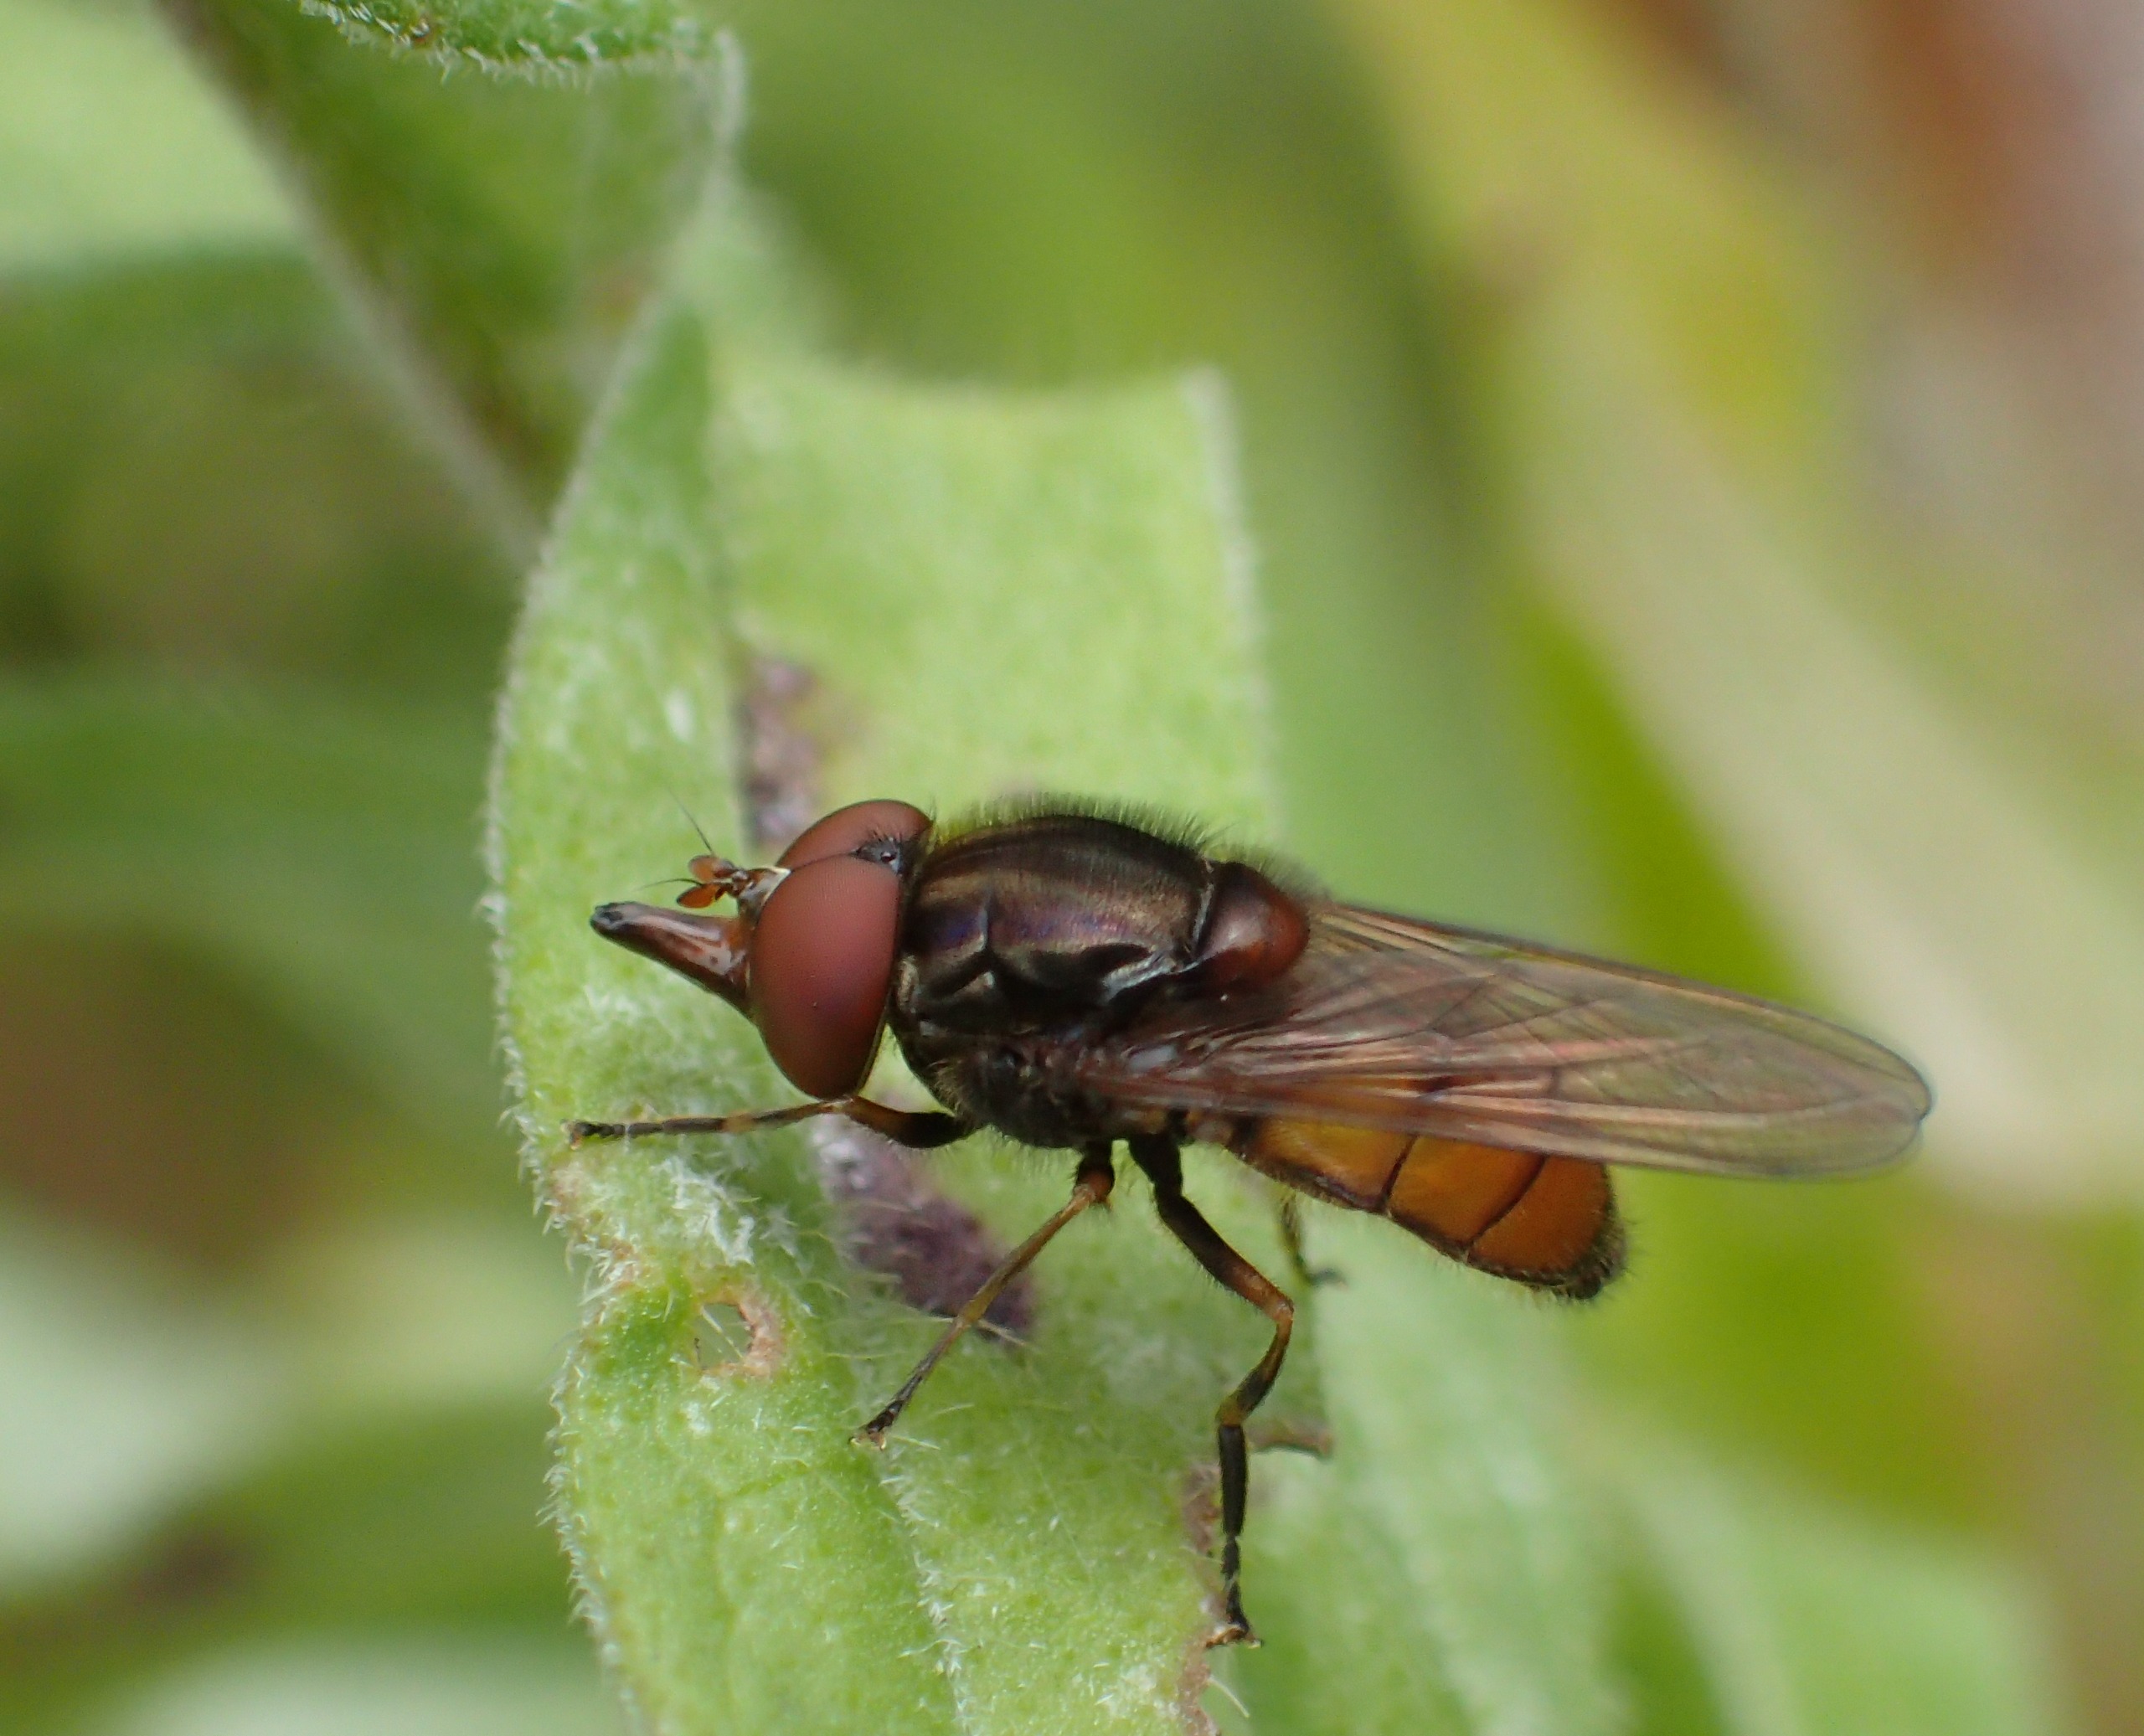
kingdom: Animalia
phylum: Arthropoda
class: Insecta
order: Diptera
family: Syrphidae
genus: Rhingia
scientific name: Rhingia campestris
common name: Mark-snabelsvirreflue
